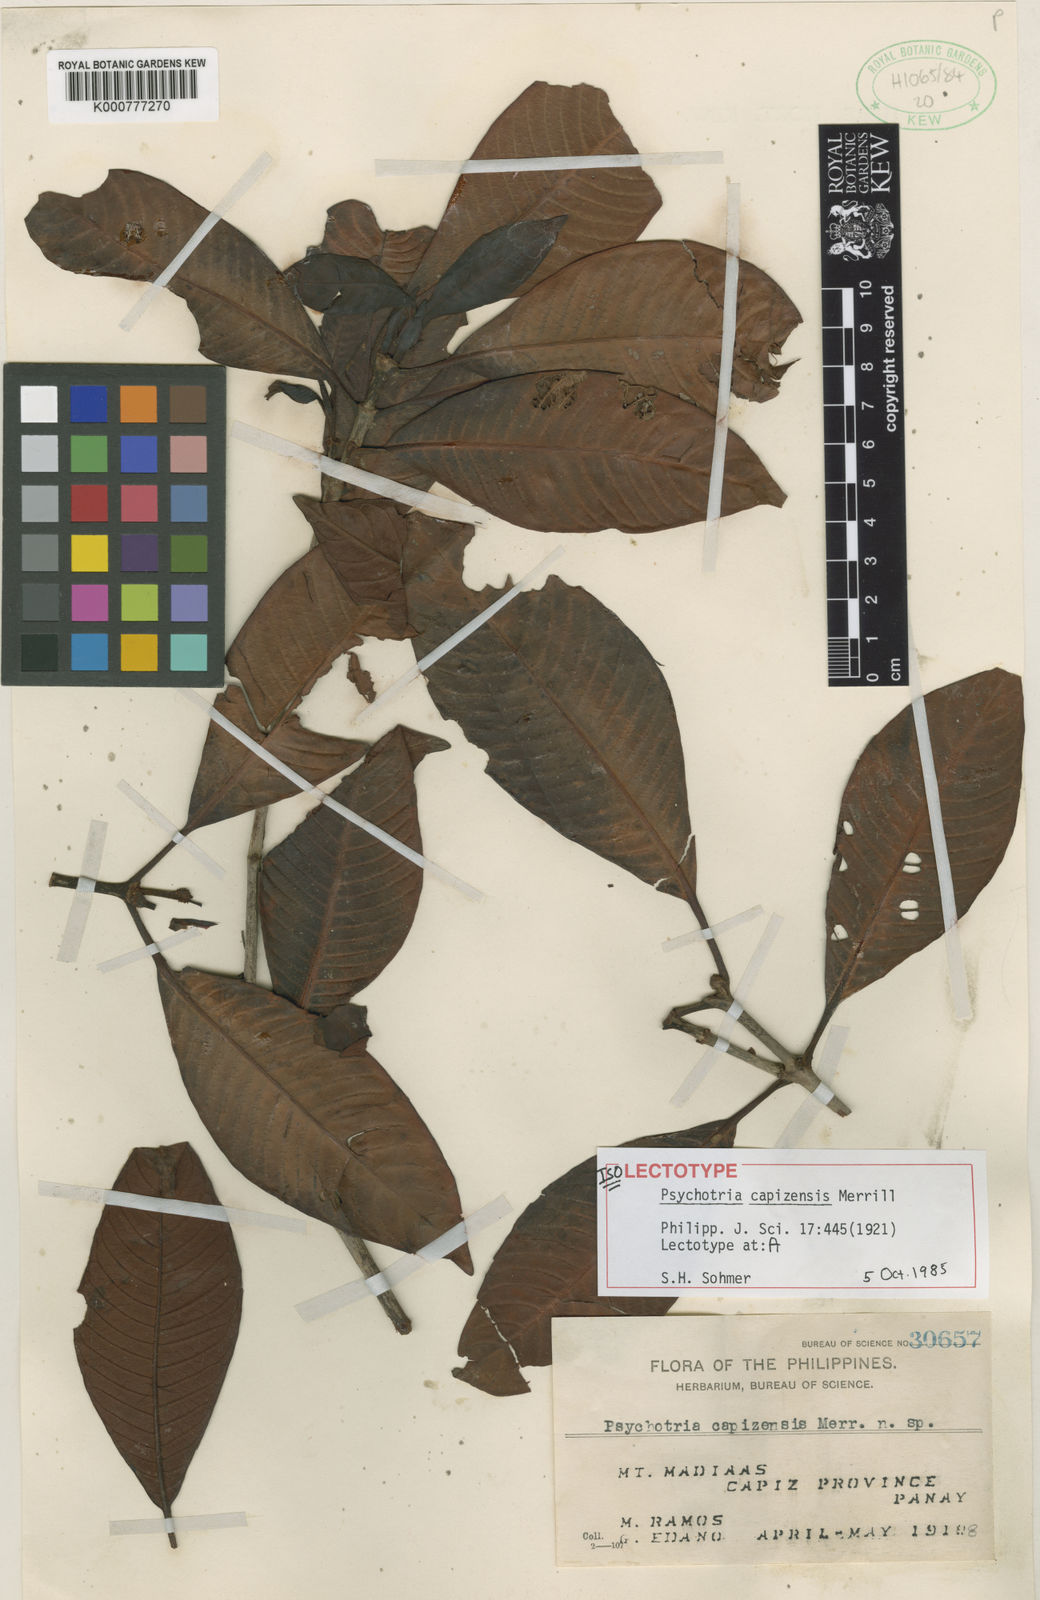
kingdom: Plantae
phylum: Tracheophyta
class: Magnoliopsida
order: Gentianales
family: Rubiaceae
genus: Psychotria
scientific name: Psychotria capizensis
